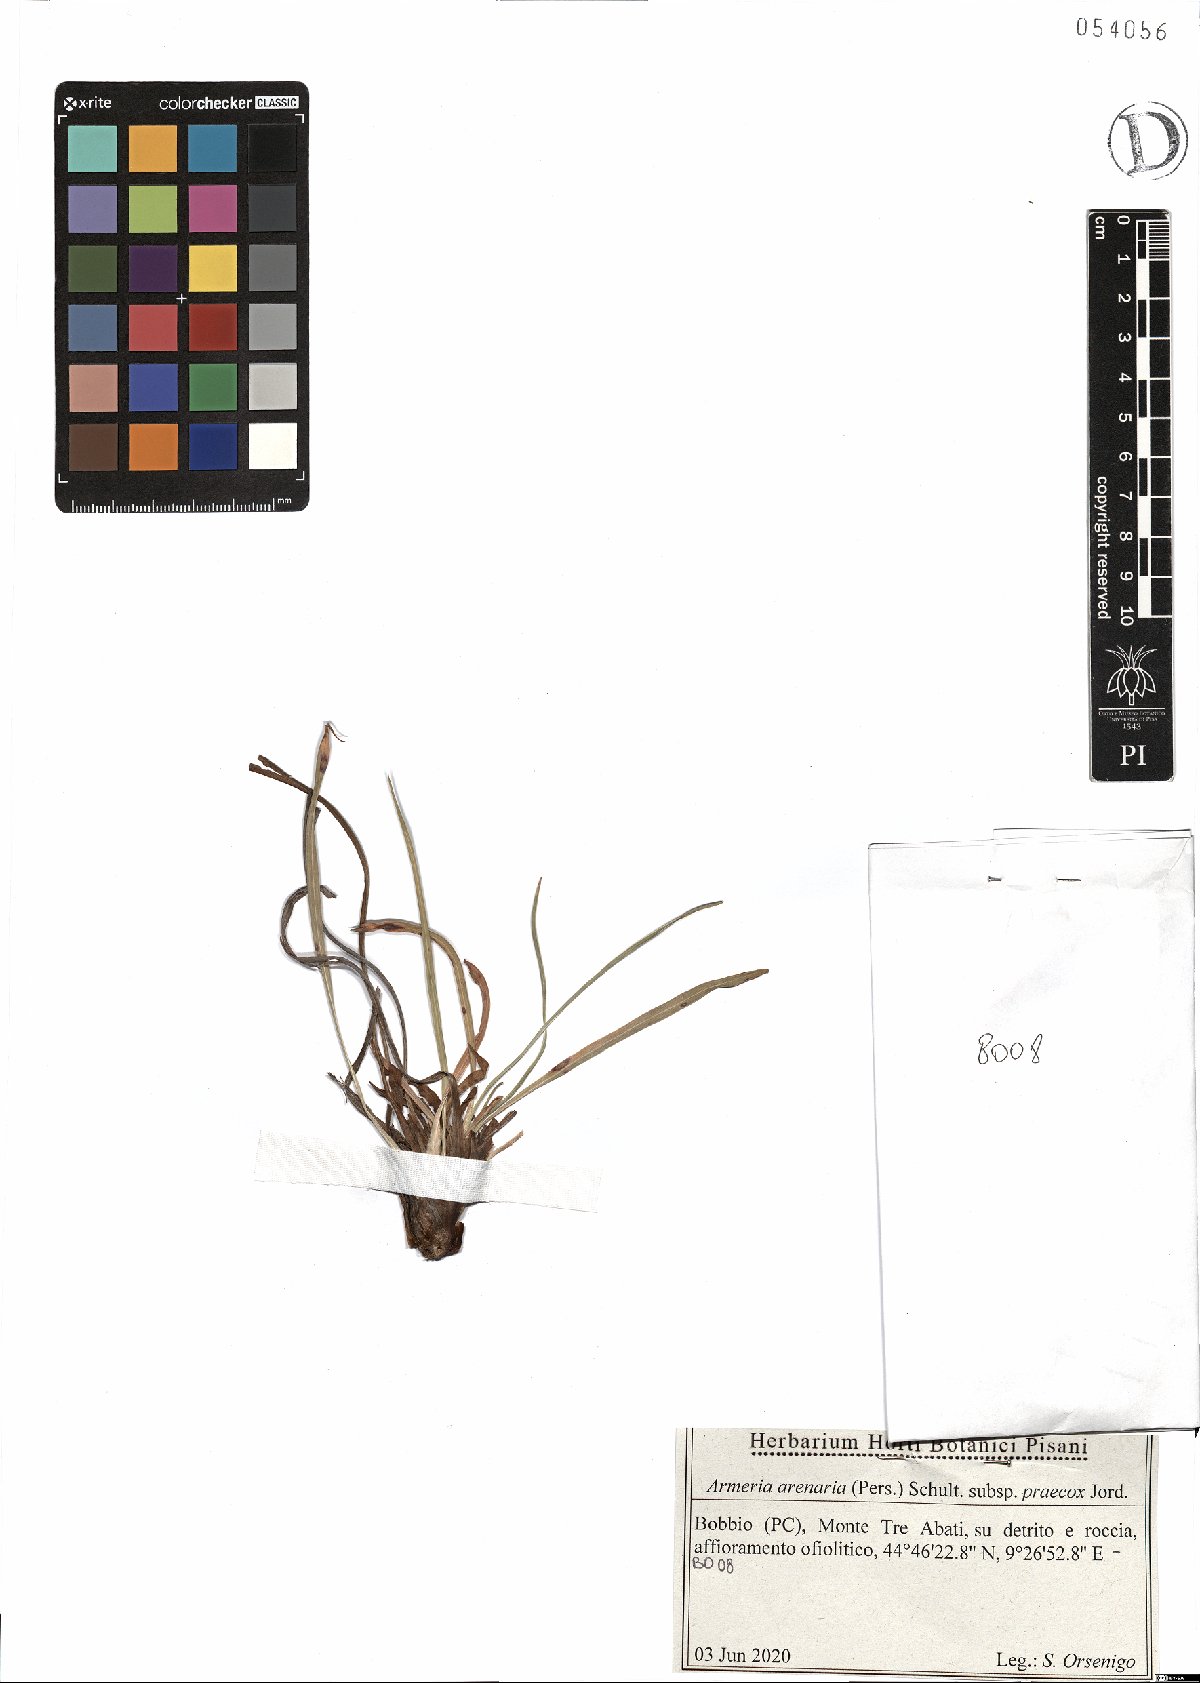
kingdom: Plantae
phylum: Tracheophyta
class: Magnoliopsida
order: Caryophyllales
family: Plumbaginaceae
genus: Armeria
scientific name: Armeria arenaria
